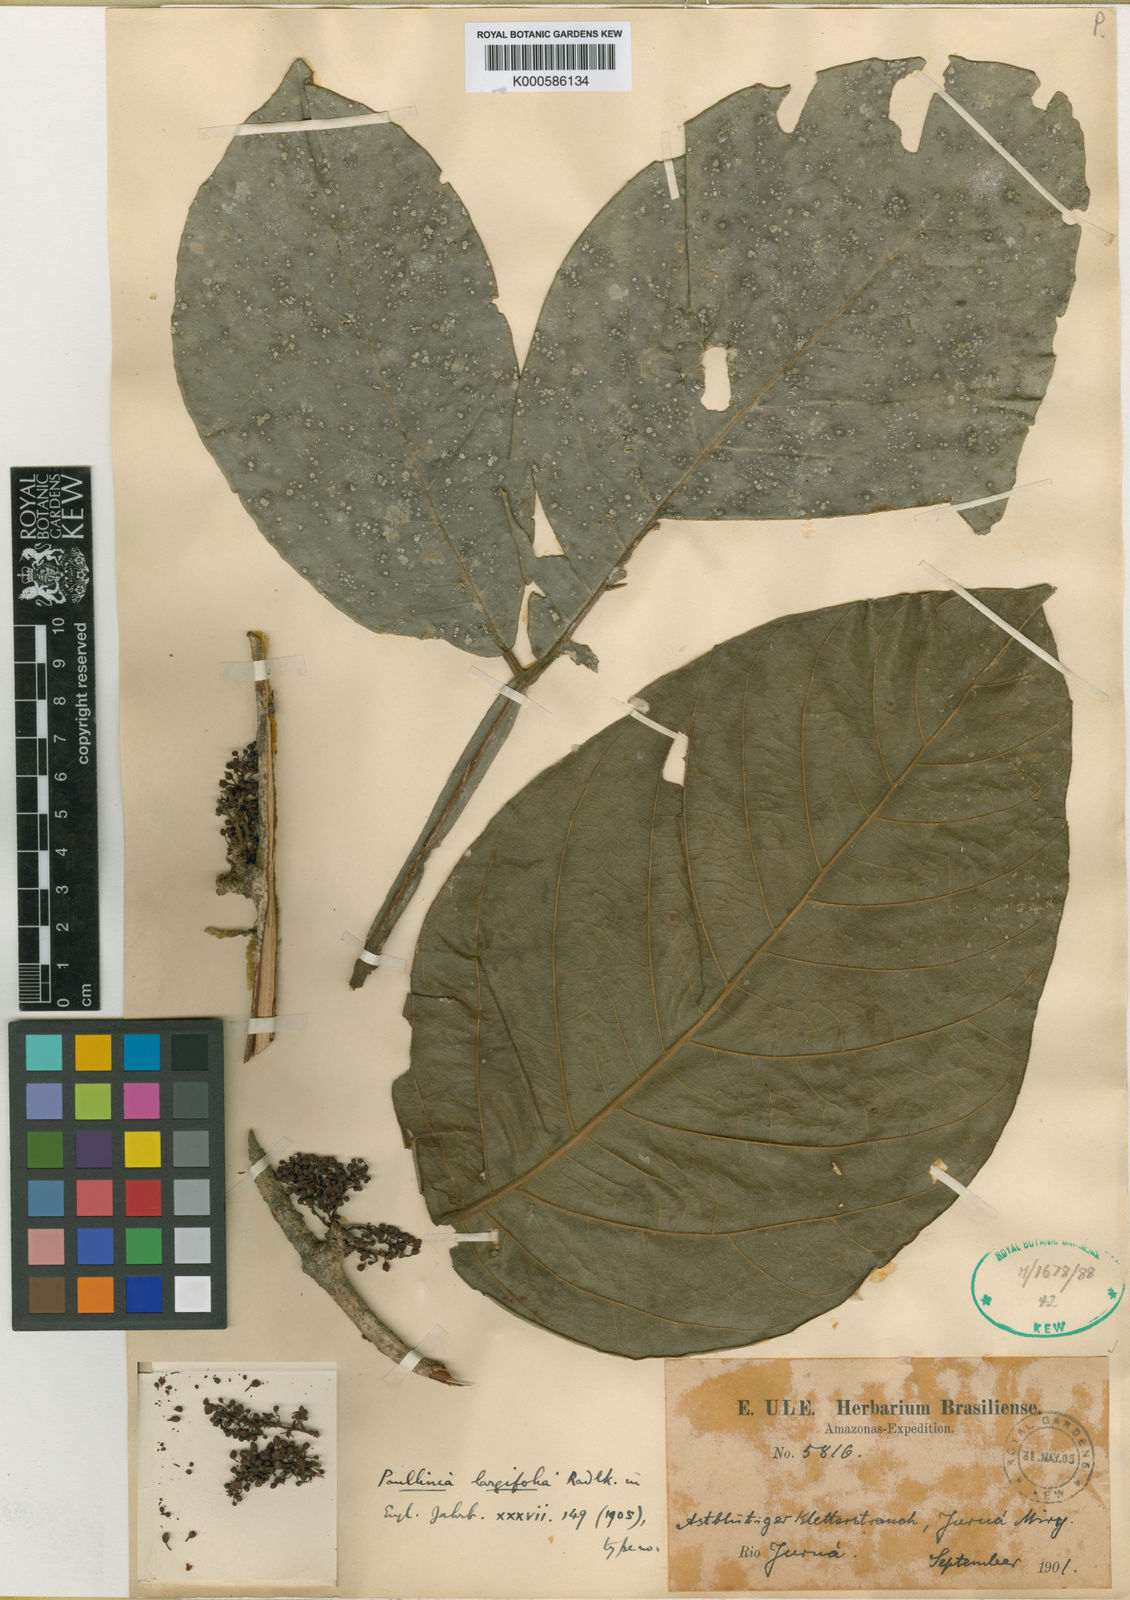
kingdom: Plantae
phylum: Tracheophyta
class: Magnoliopsida
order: Sapindales
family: Sapindaceae
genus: Paullinia
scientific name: Paullinia largifolia
